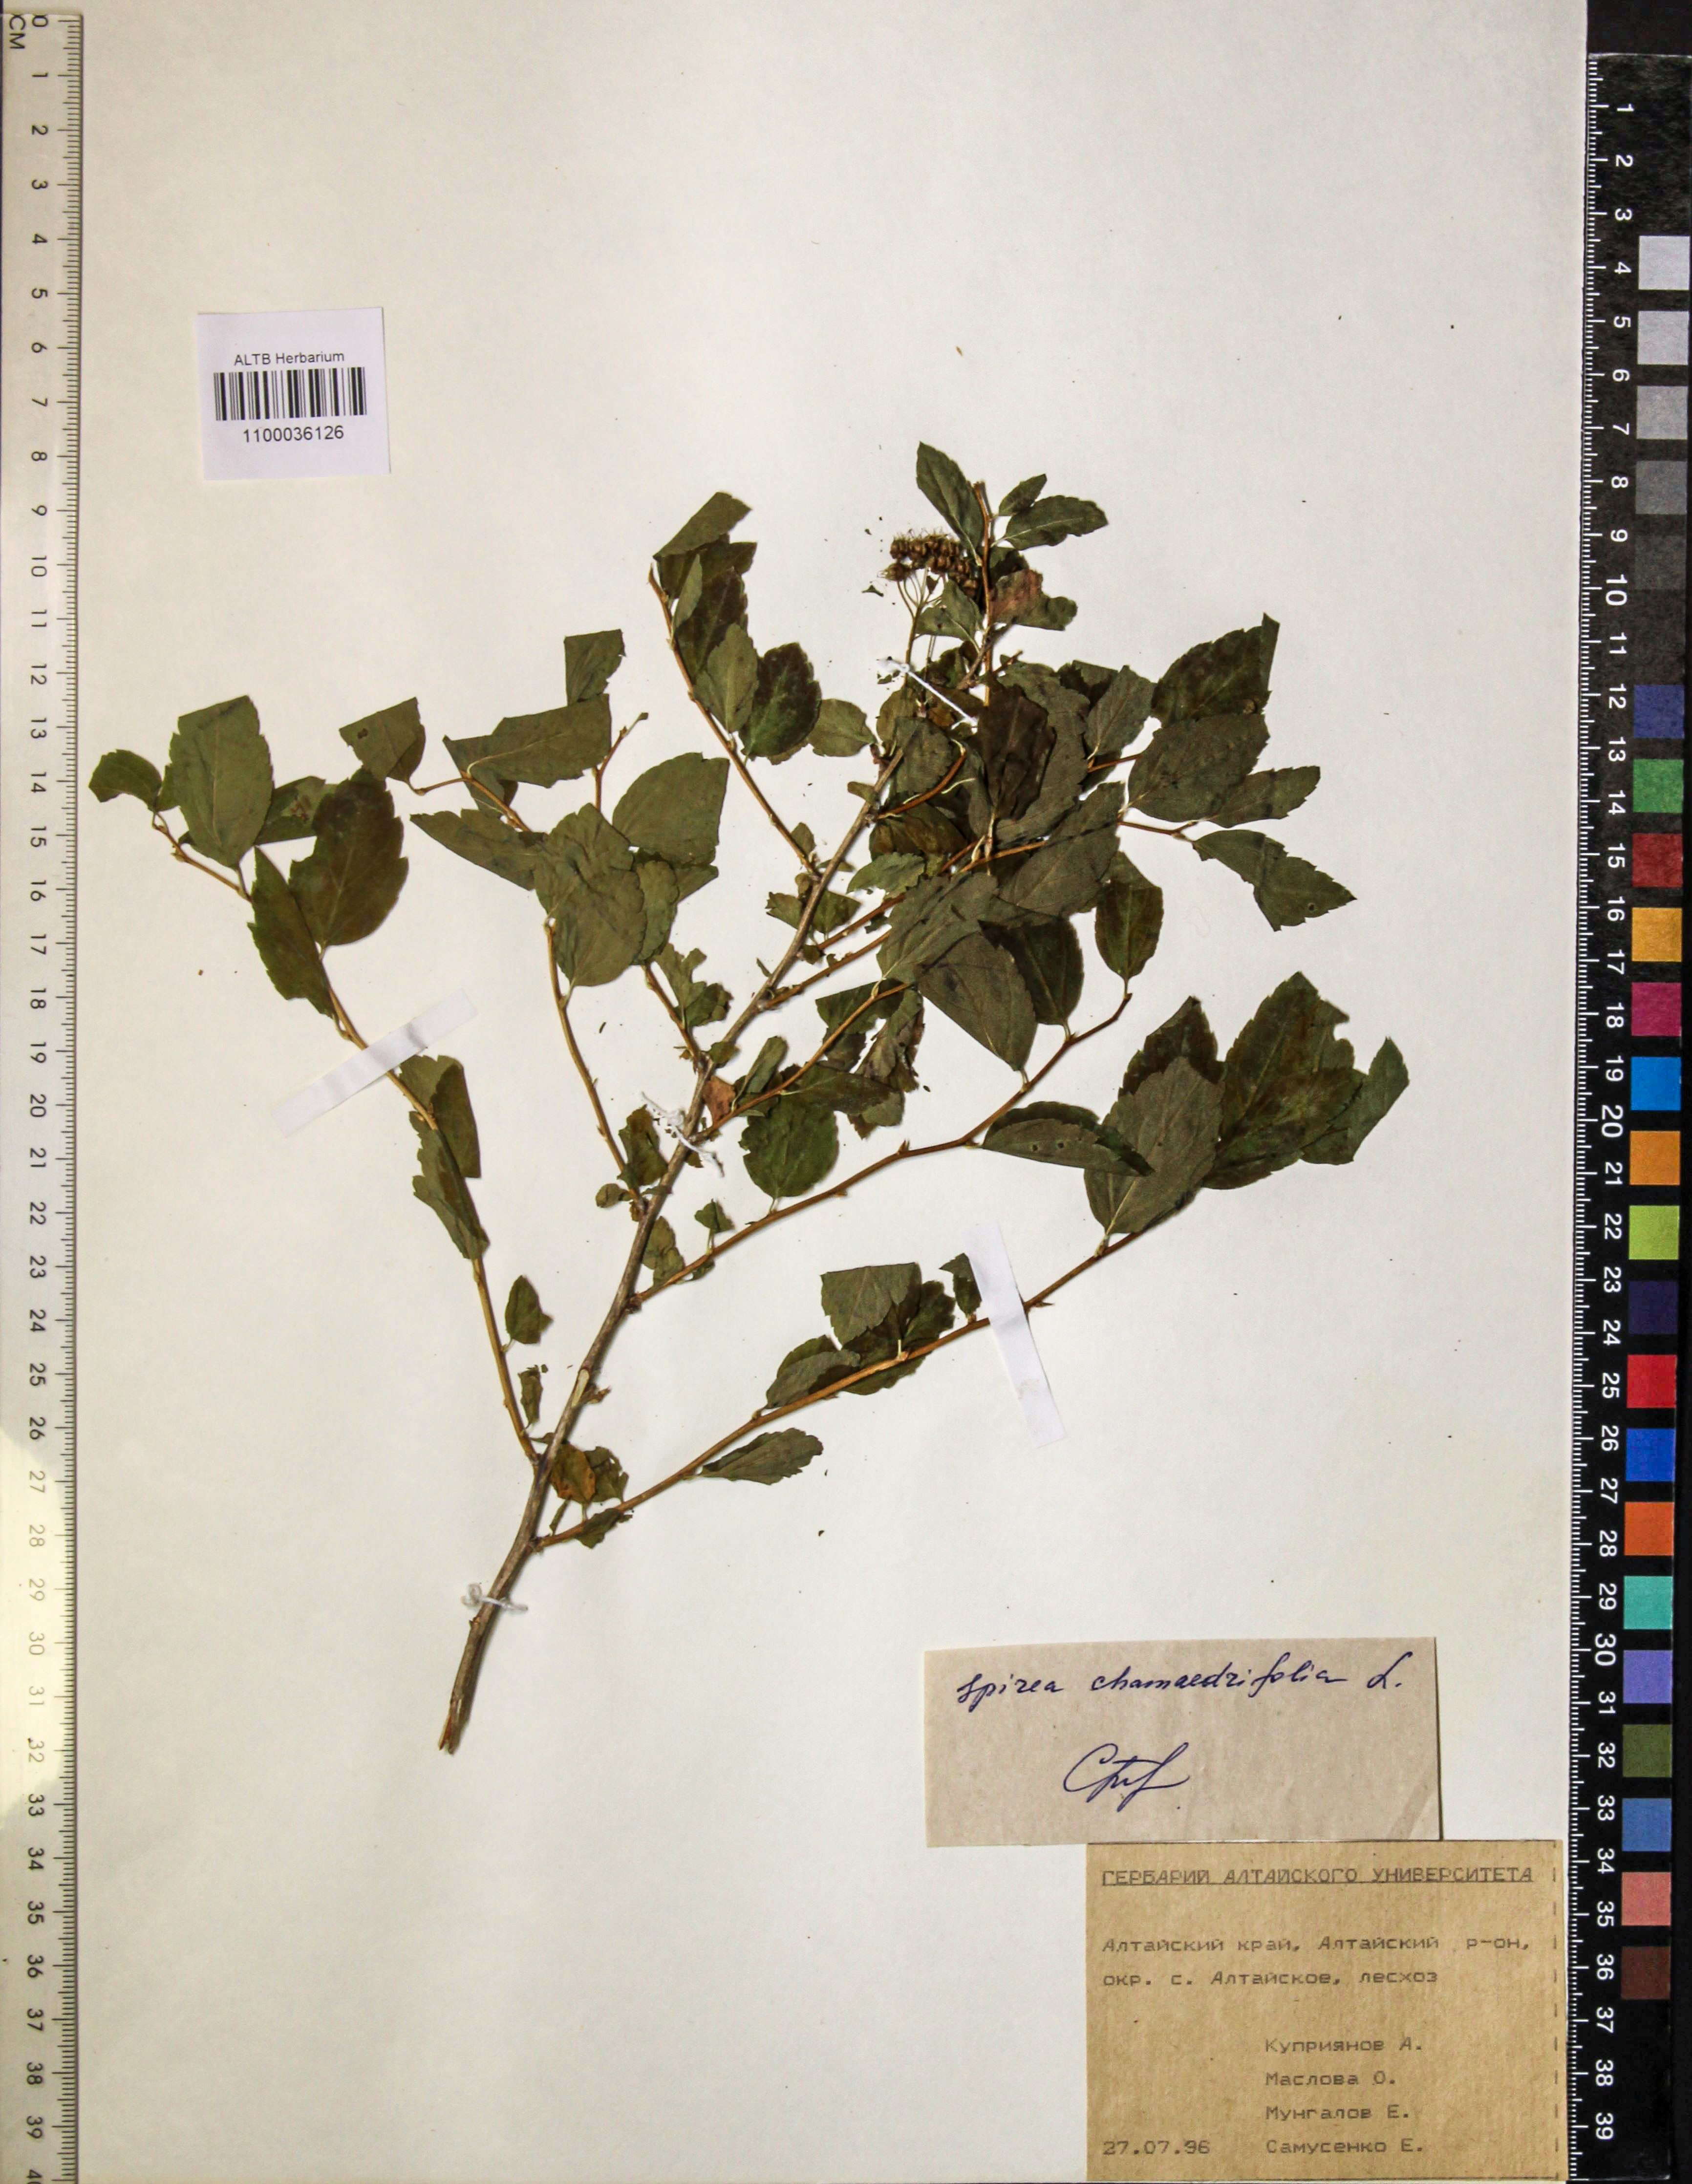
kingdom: Plantae
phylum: Tracheophyta
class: Magnoliopsida
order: Rosales
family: Rosaceae
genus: Spiraea
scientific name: Spiraea chamaedryfolia
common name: Elm-leaved spiraea
